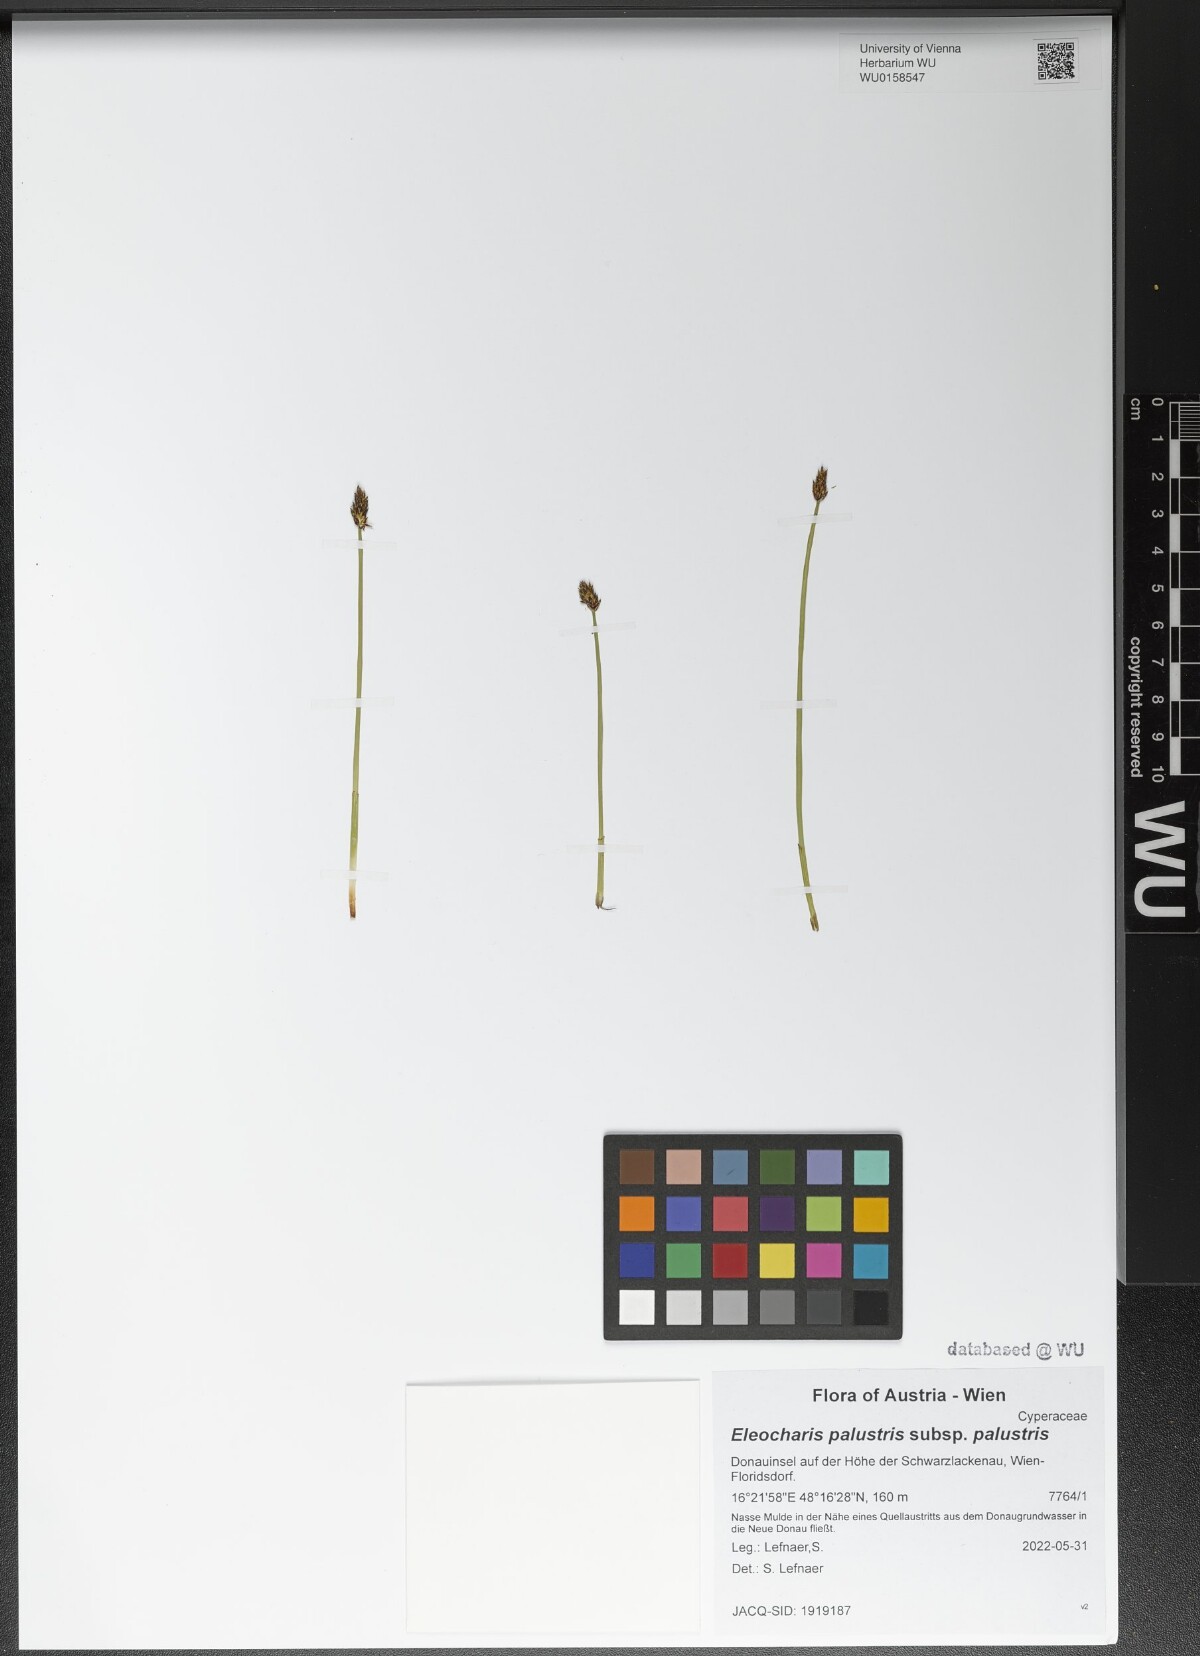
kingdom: Plantae
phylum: Tracheophyta
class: Liliopsida
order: Poales
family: Cyperaceae
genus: Eleocharis
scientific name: Eleocharis palustris
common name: Common spike-rush
